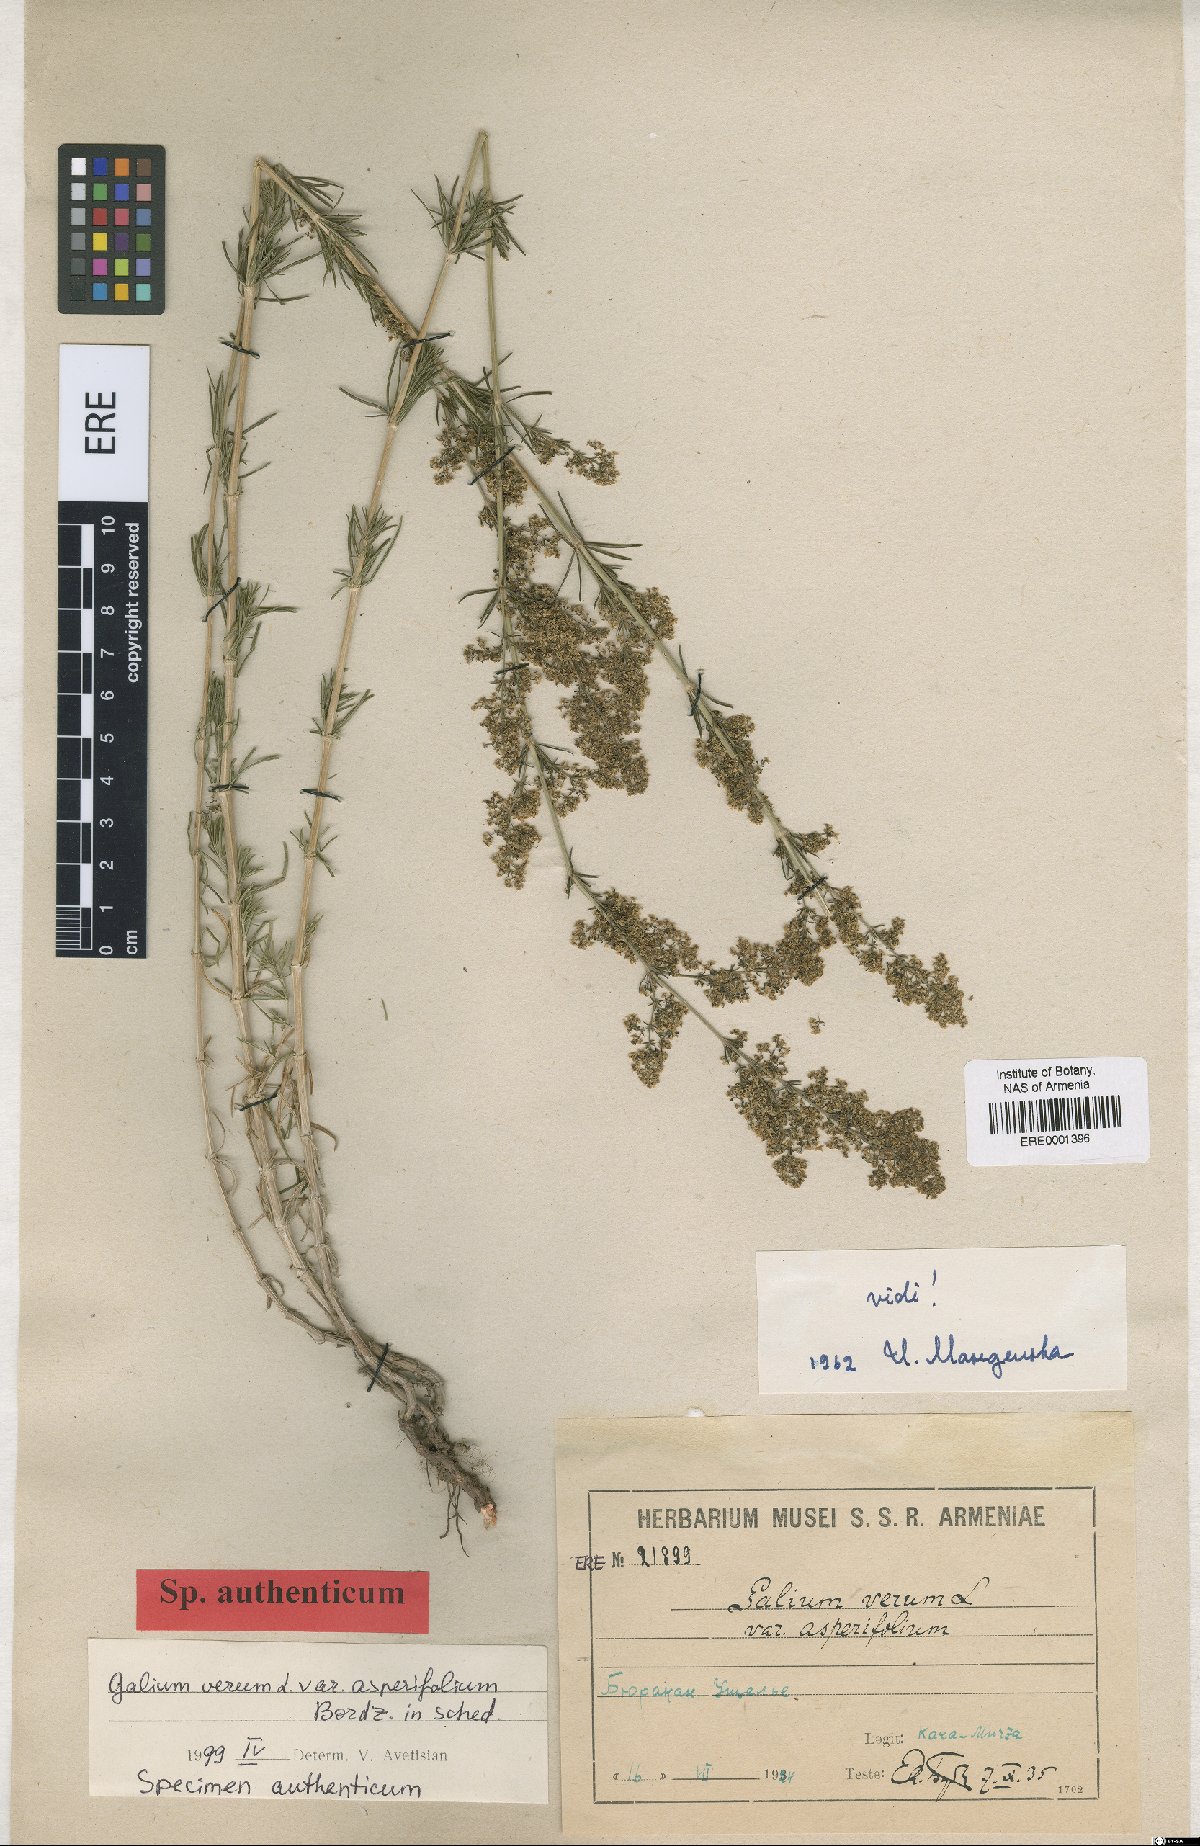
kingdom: Plantae
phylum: Tracheophyta
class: Magnoliopsida
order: Gentianales
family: Rubiaceae
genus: Galium
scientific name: Galium verum
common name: Lady's bedstraw
